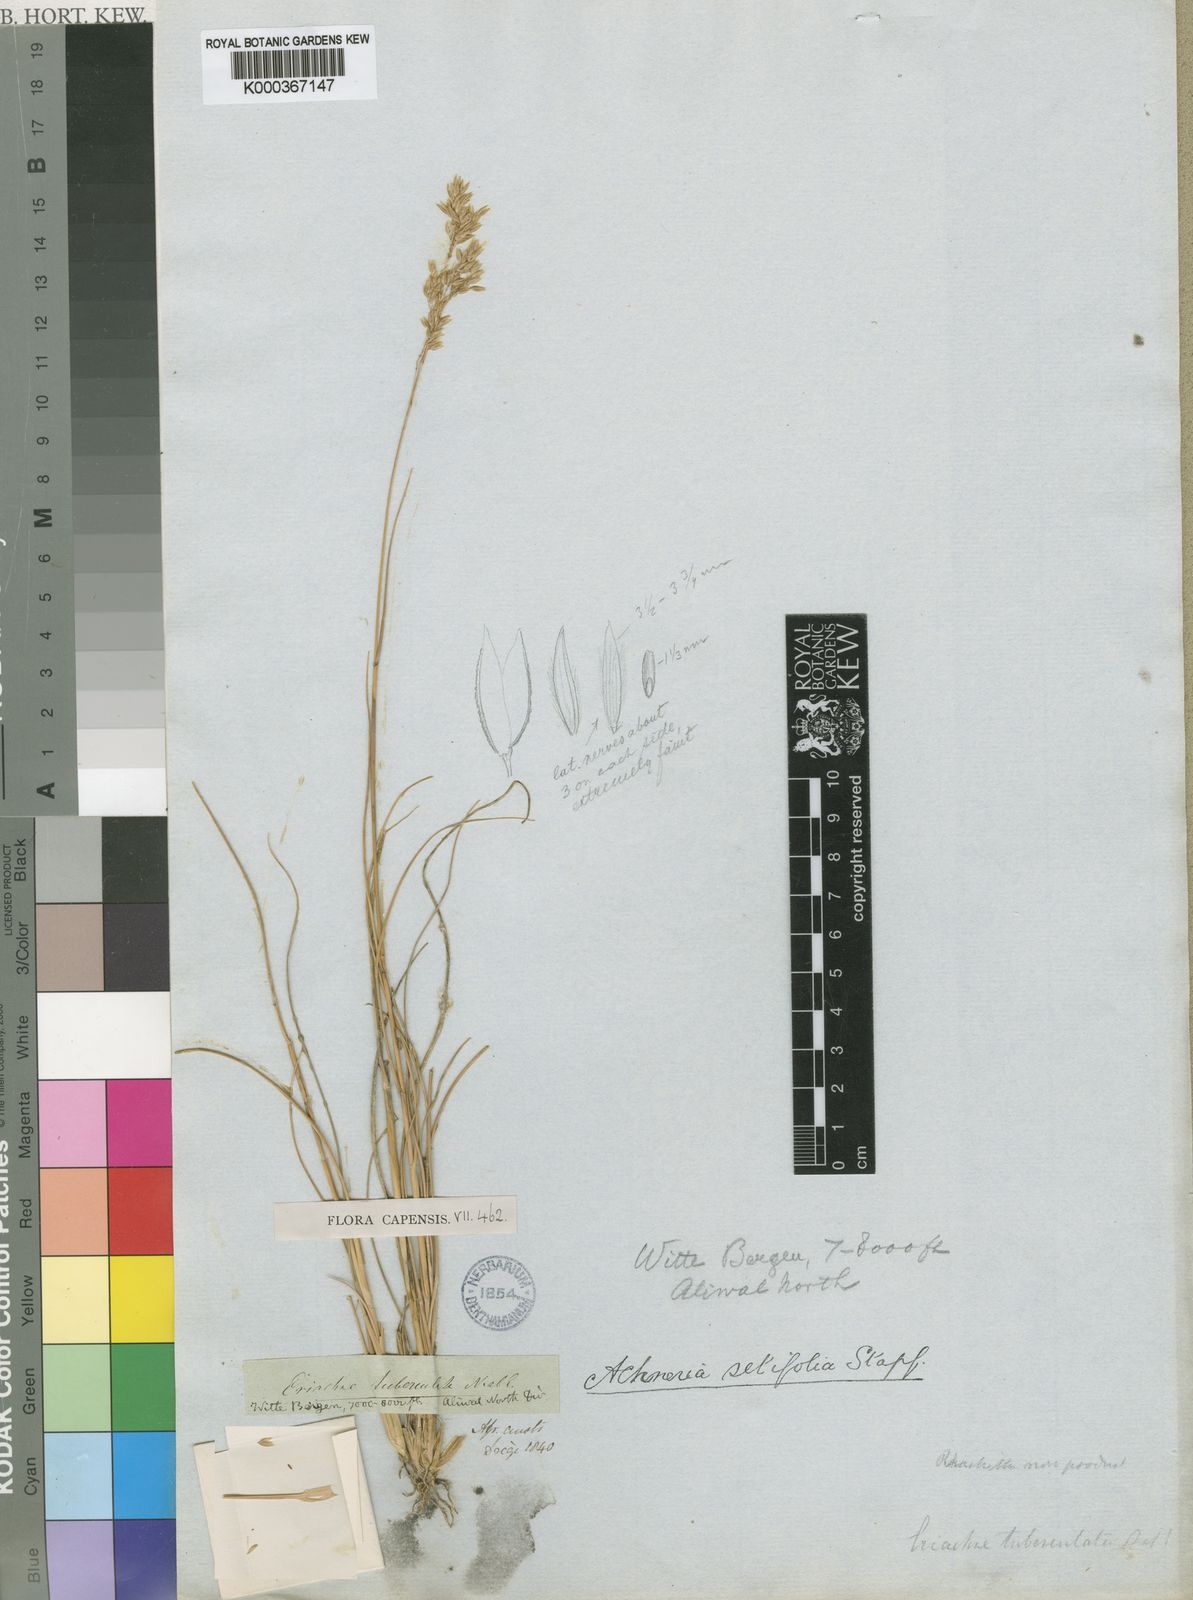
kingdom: Plantae
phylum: Tracheophyta
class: Liliopsida
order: Poales
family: Poaceae
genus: Pentameris
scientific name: Pentameris setifolia
